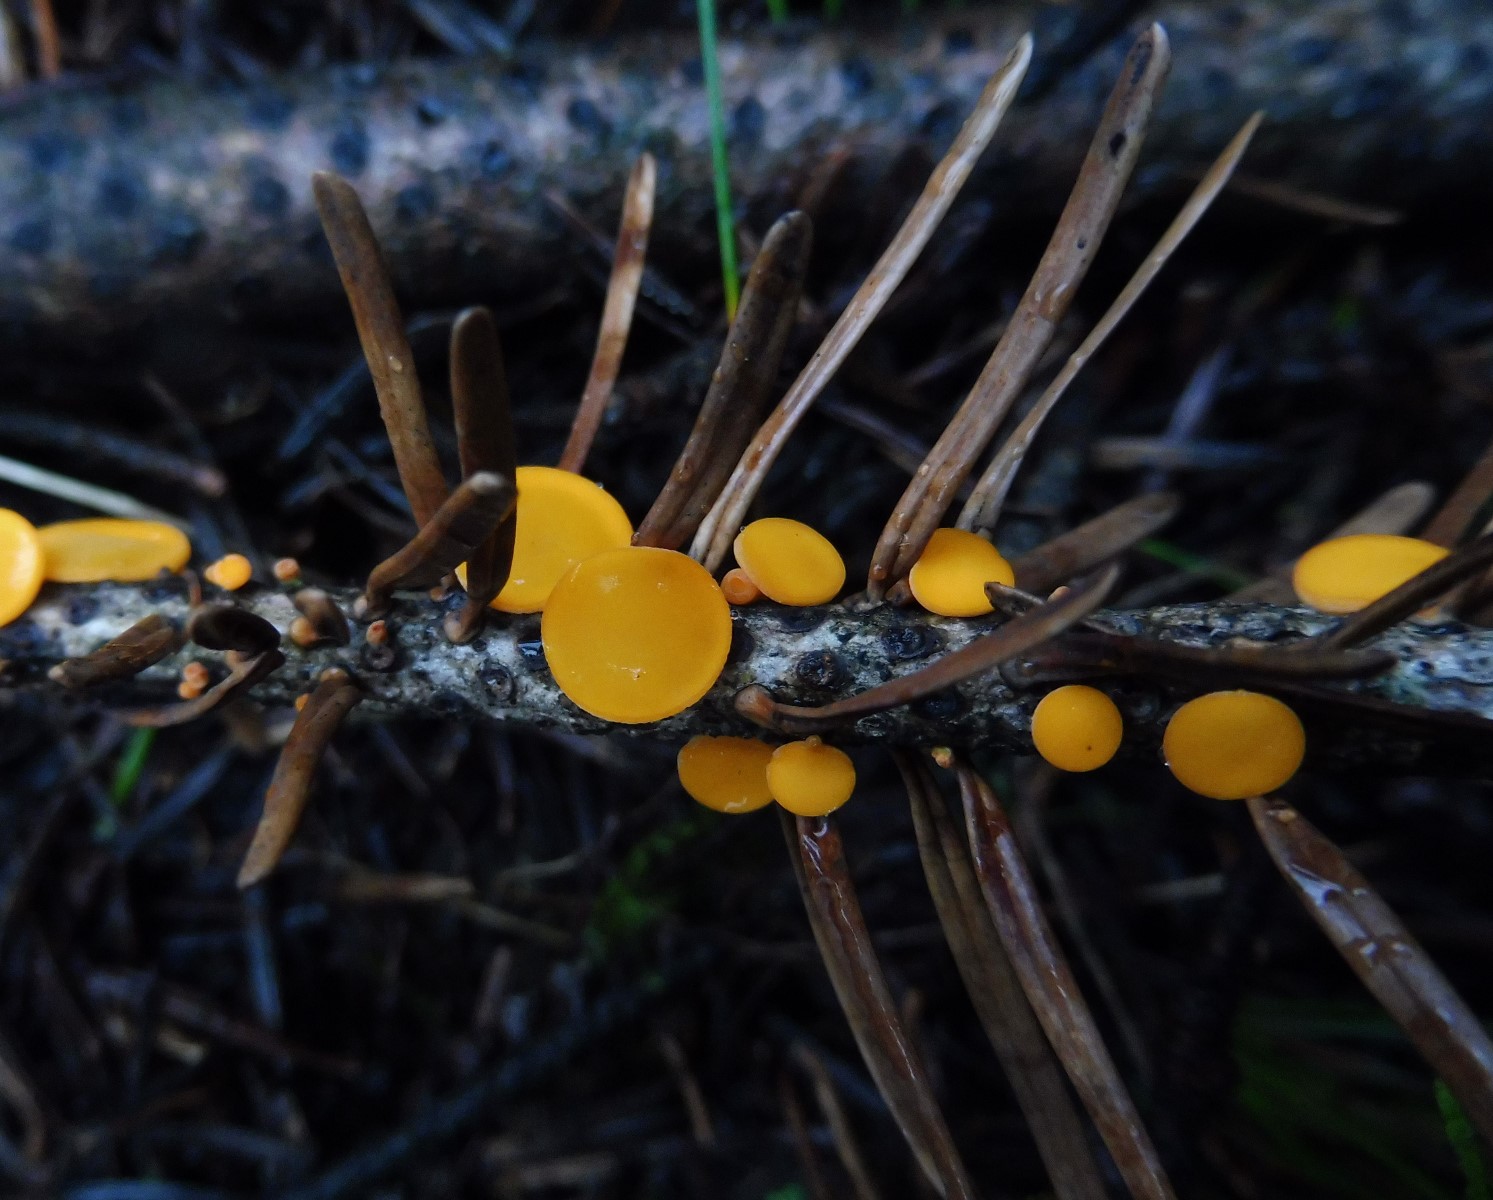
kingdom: Fungi
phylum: Ascomycota
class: Pezizomycetes
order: Pezizales
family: Sarcoscyphaceae
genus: Pithya
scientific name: Pithya vulgaris
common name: stor dukatbæger
